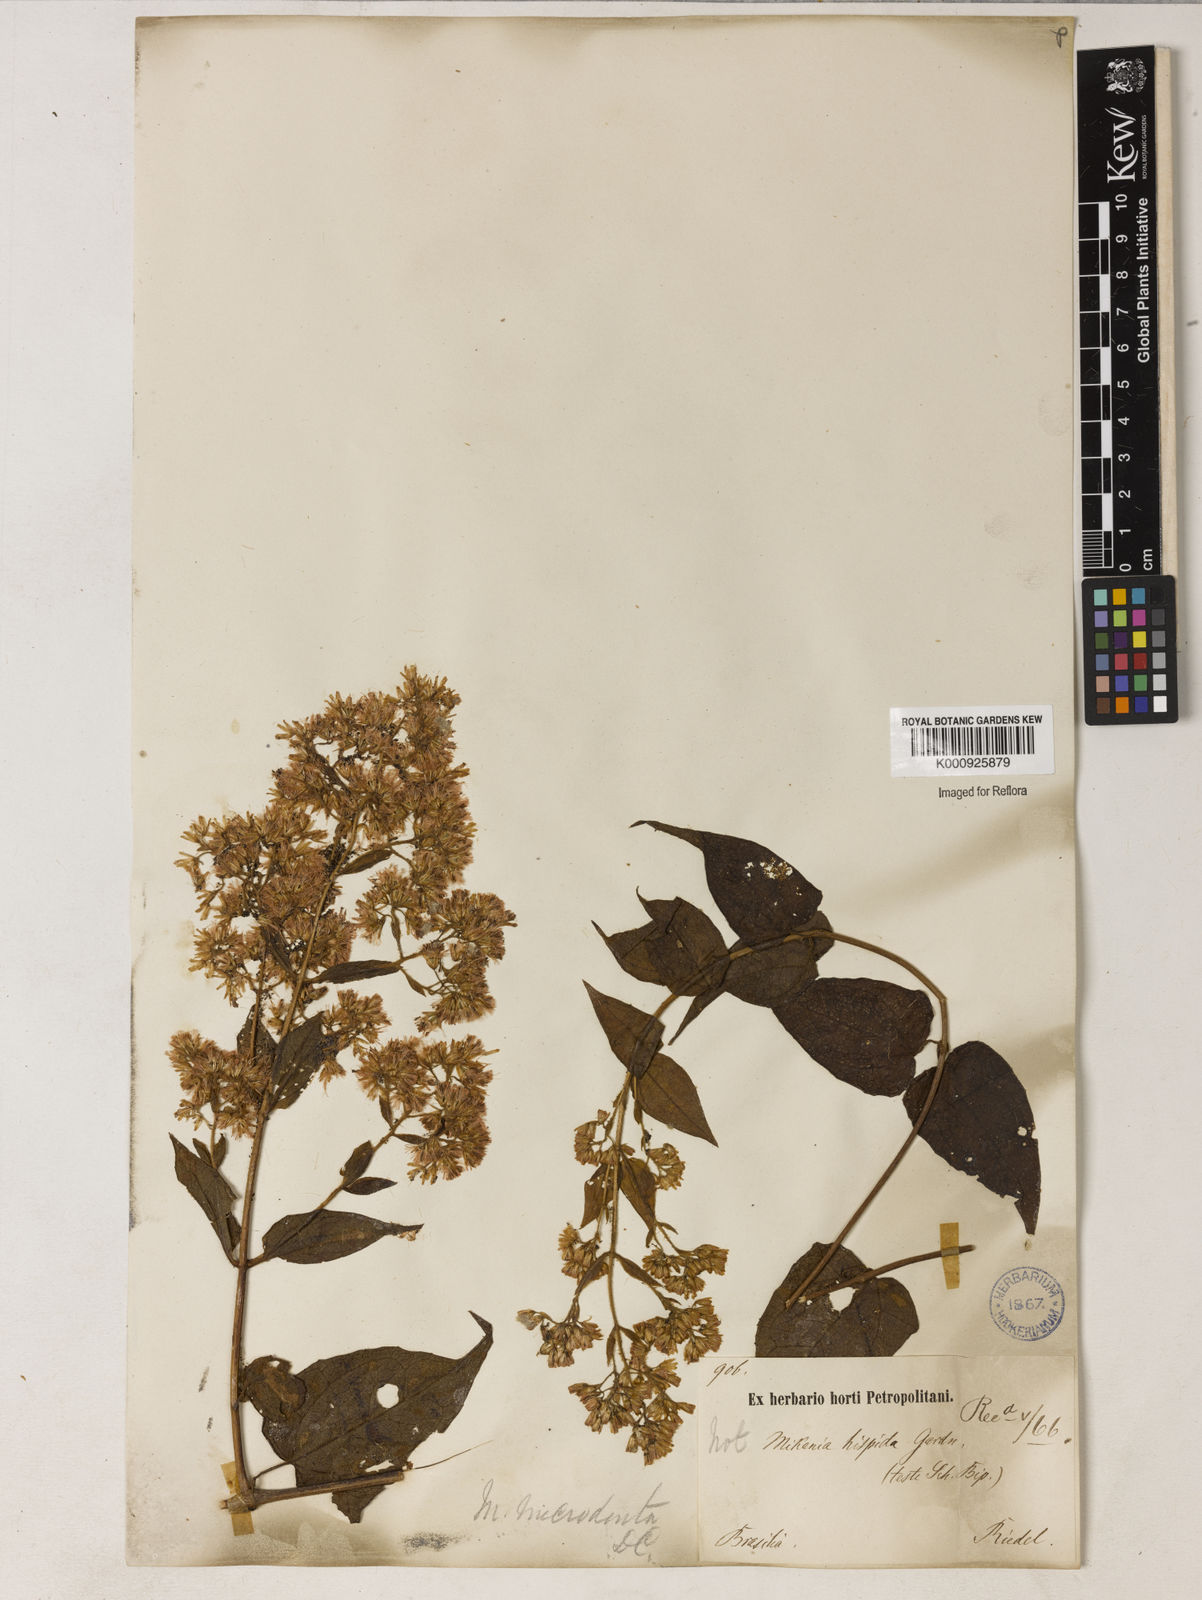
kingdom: Plantae
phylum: Tracheophyta
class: Magnoliopsida
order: Asterales
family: Asteraceae
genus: Mikania
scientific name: Mikania microdonta
